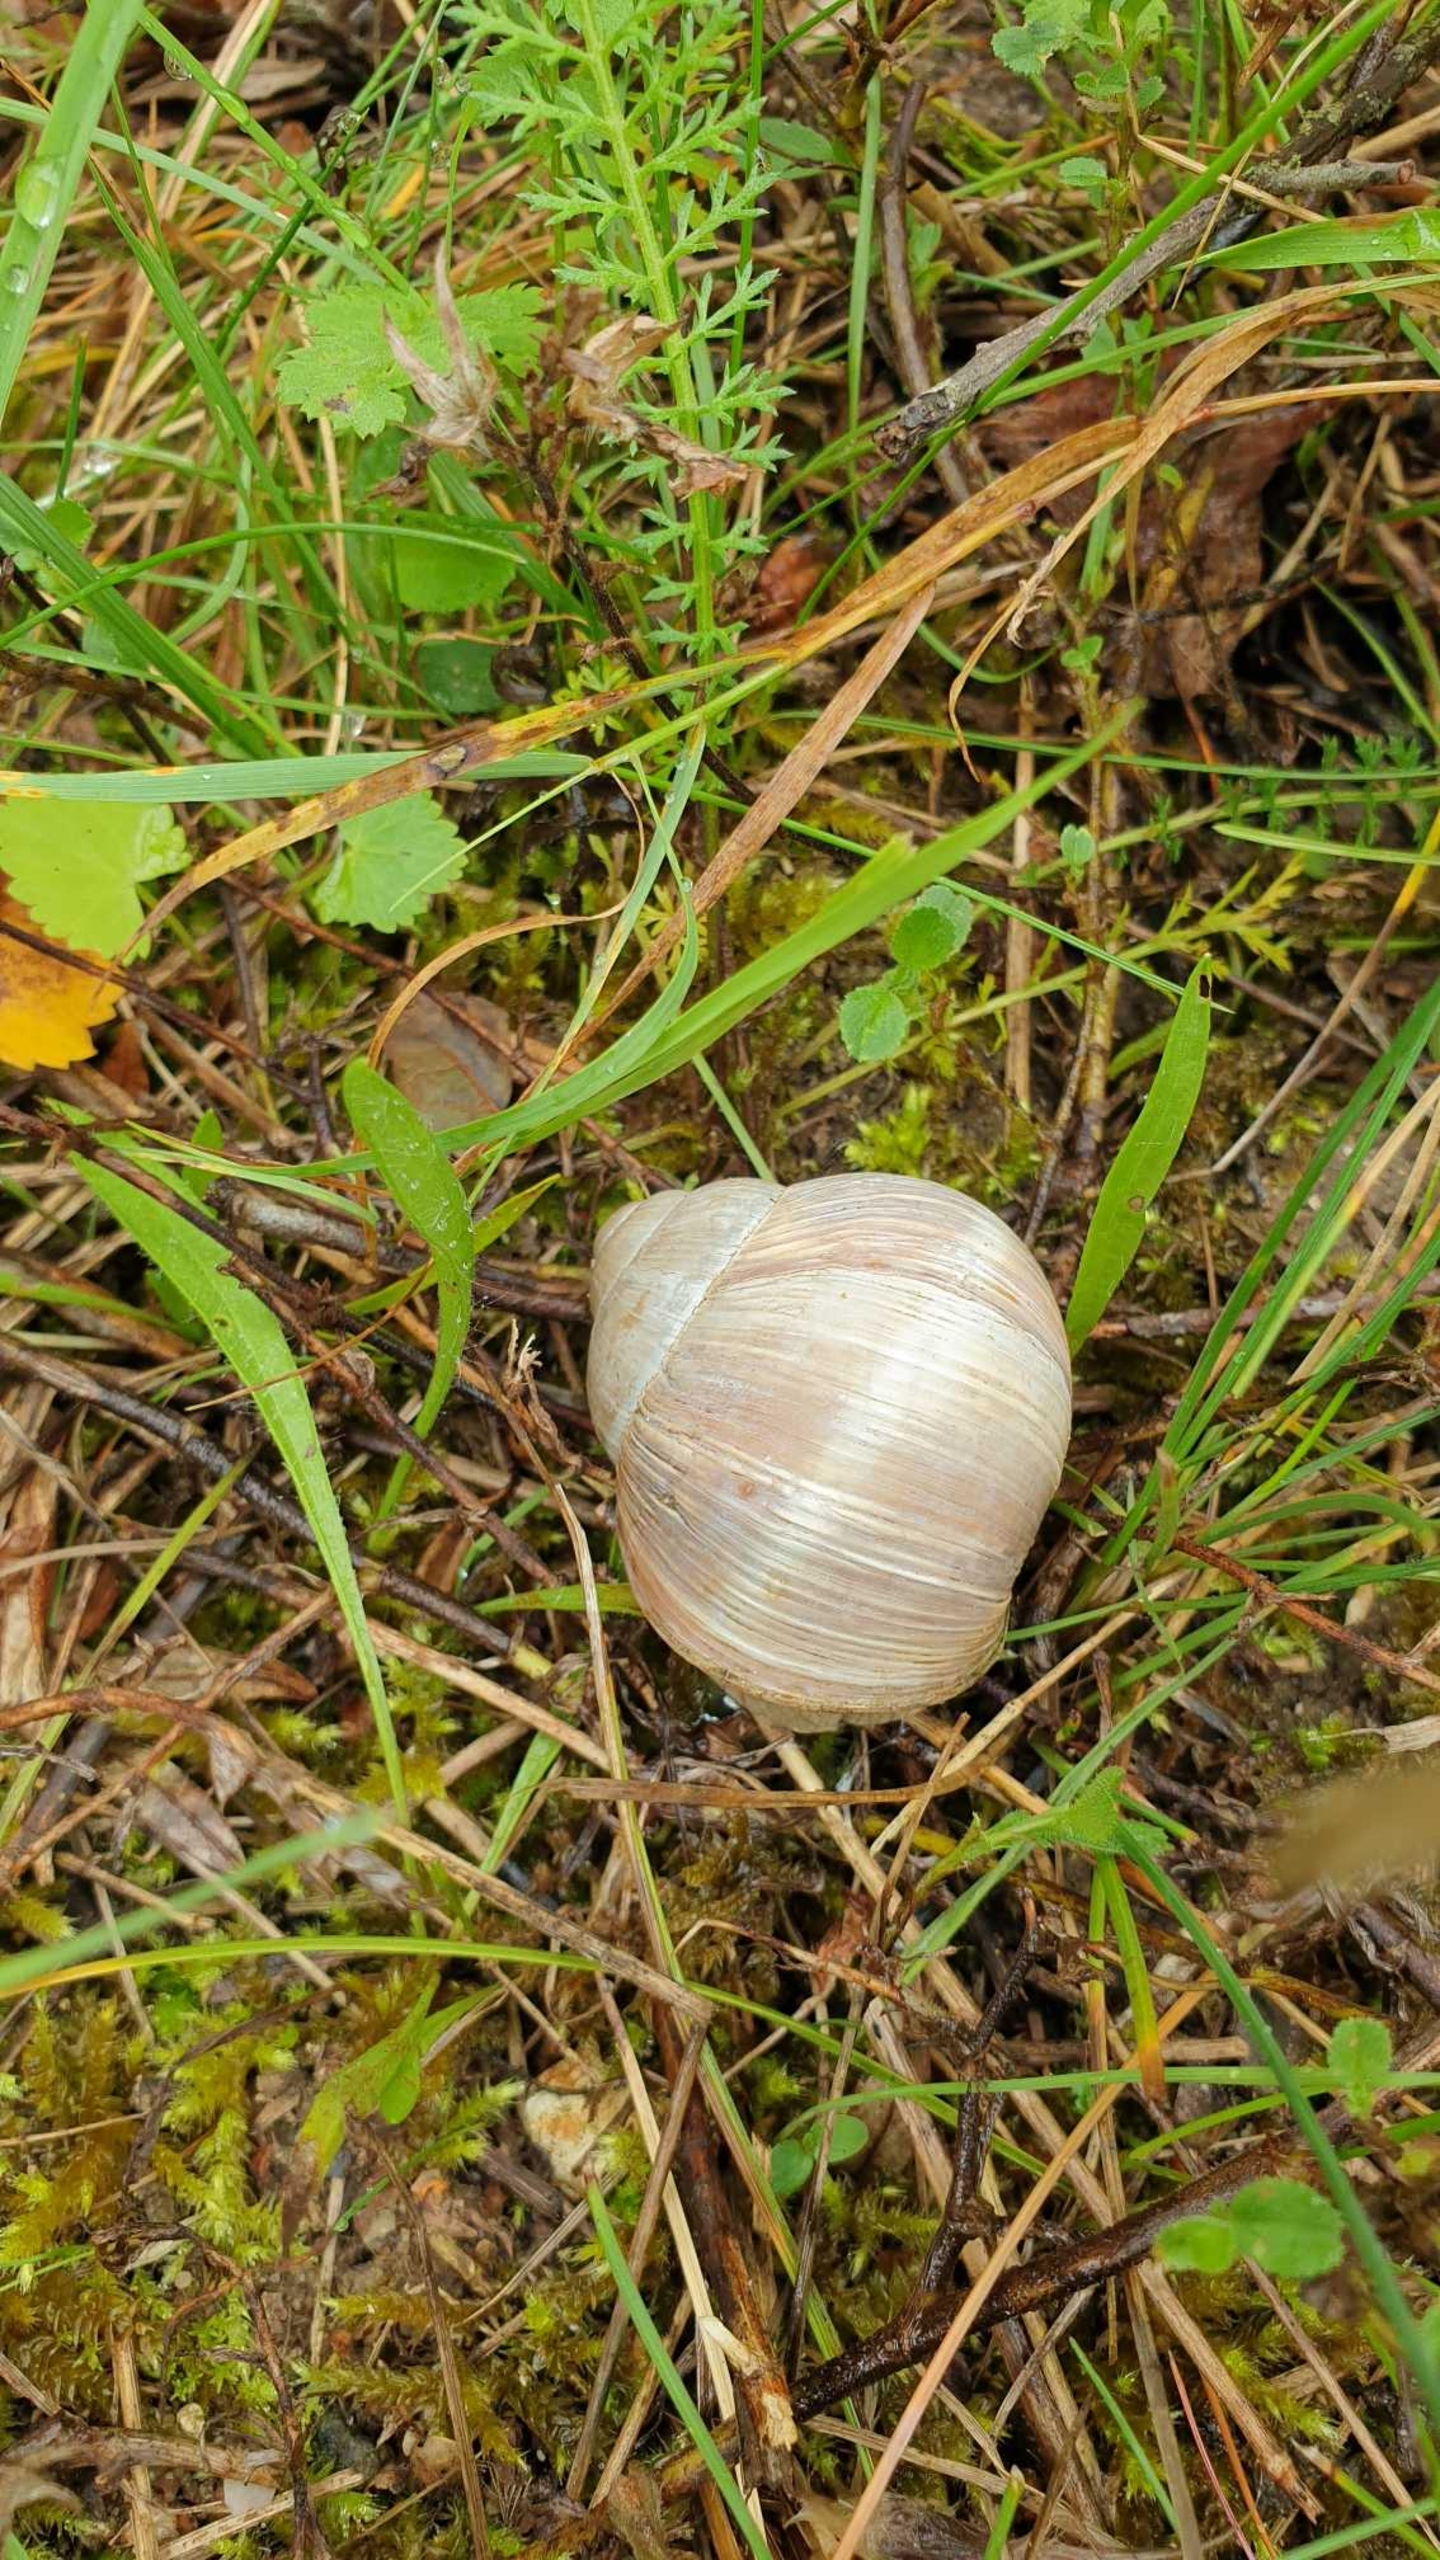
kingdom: Animalia
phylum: Mollusca
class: Gastropoda
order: Stylommatophora
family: Helicidae
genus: Helix
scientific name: Helix pomatia
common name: Vinbjergsnegl
